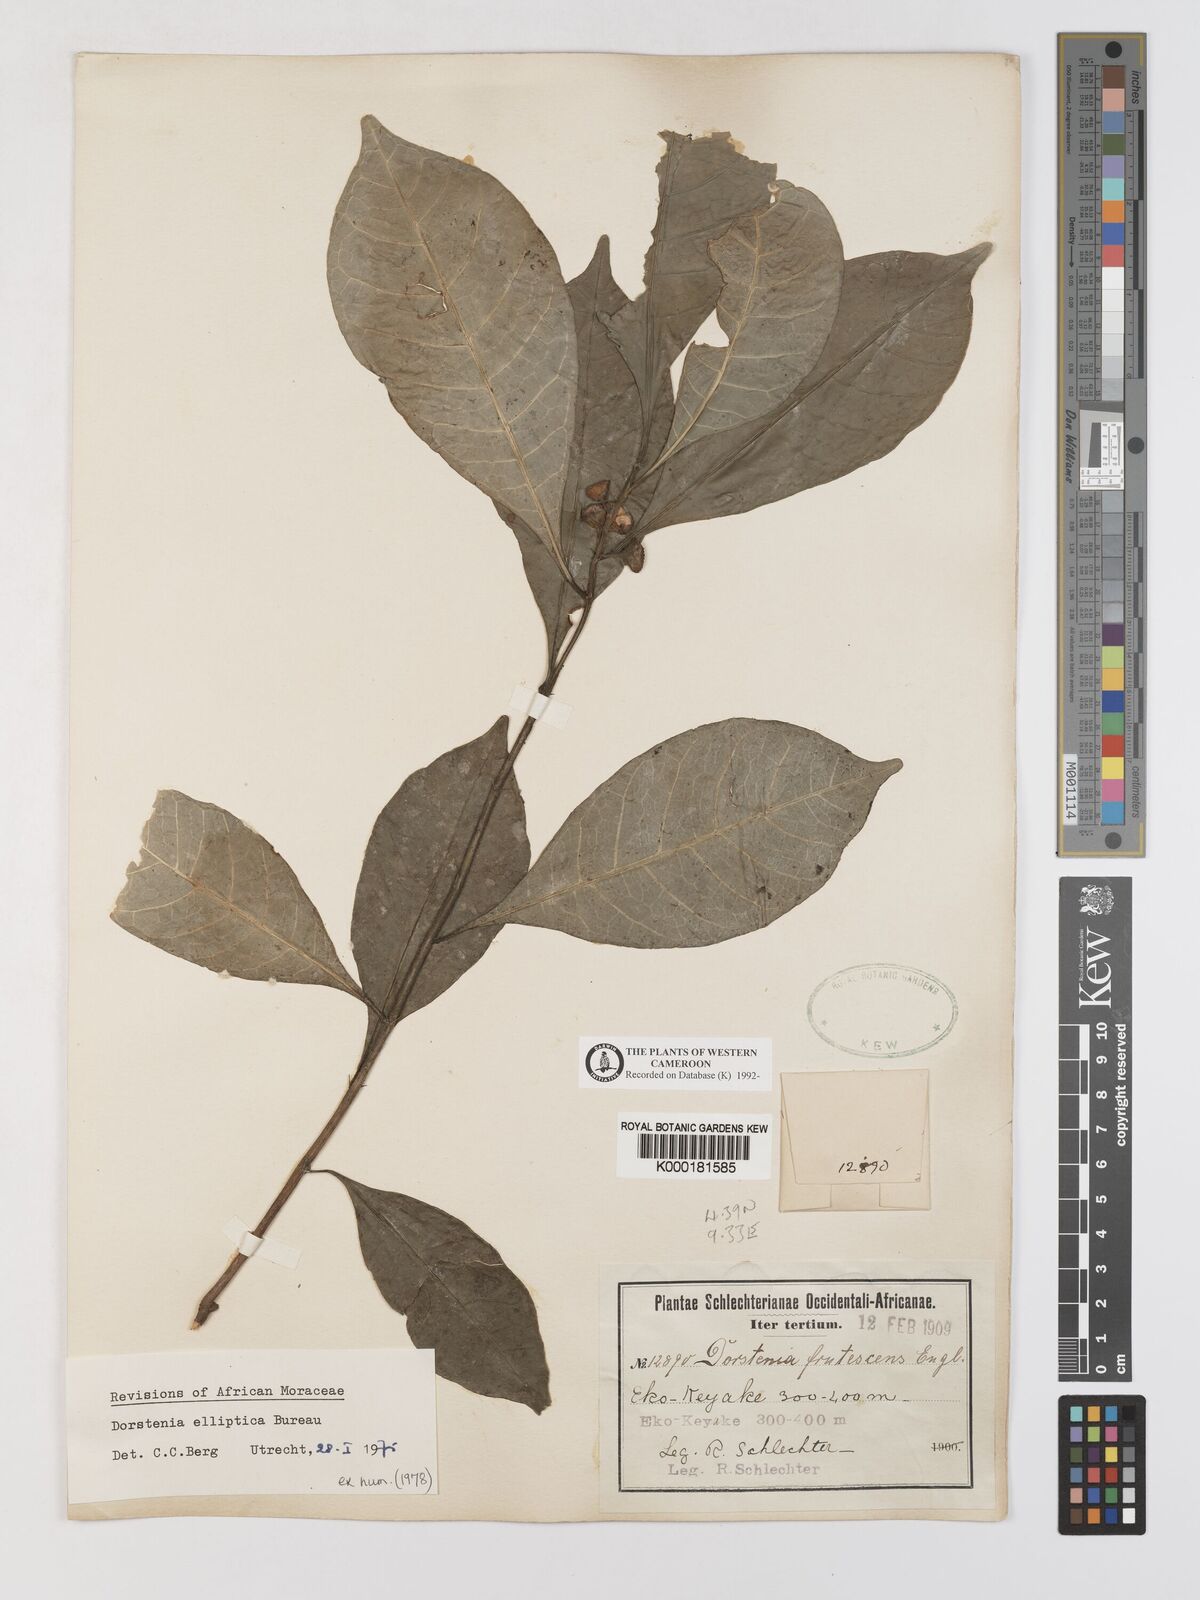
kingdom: Plantae
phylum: Tracheophyta
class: Magnoliopsida
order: Rosales
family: Moraceae
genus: Dorstenia
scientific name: Dorstenia elliptica
